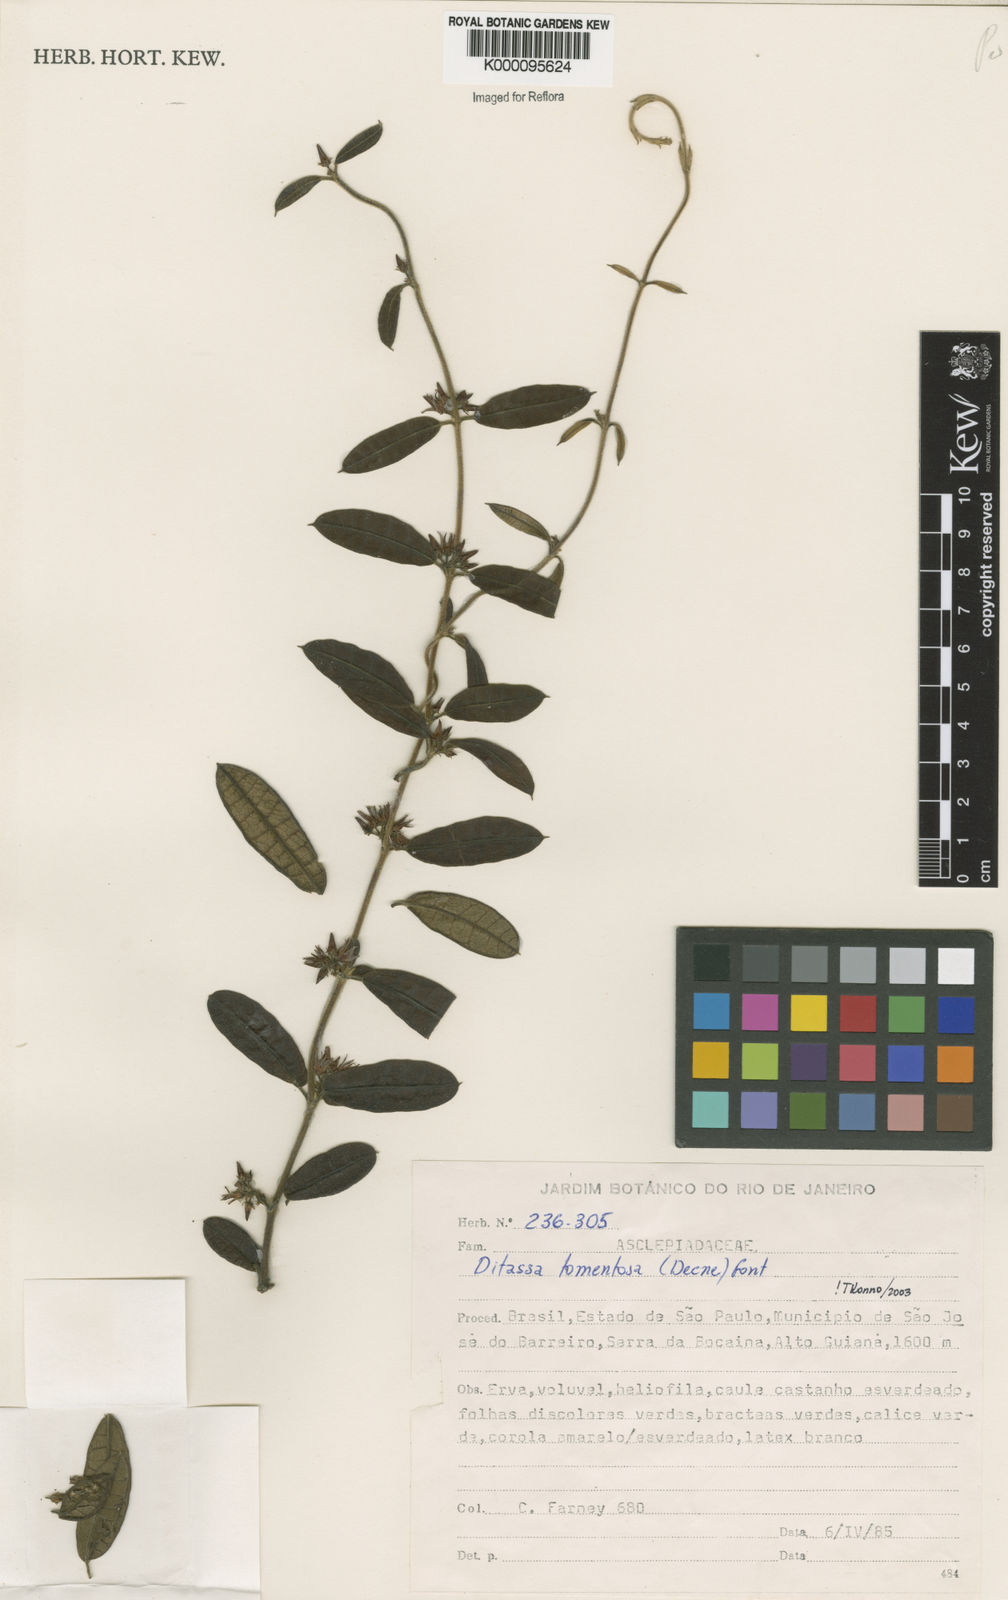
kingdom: Plantae
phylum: Tracheophyta
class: Magnoliopsida
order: Gentianales
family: Apocynaceae
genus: Ditassa
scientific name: Ditassa tomentosa
